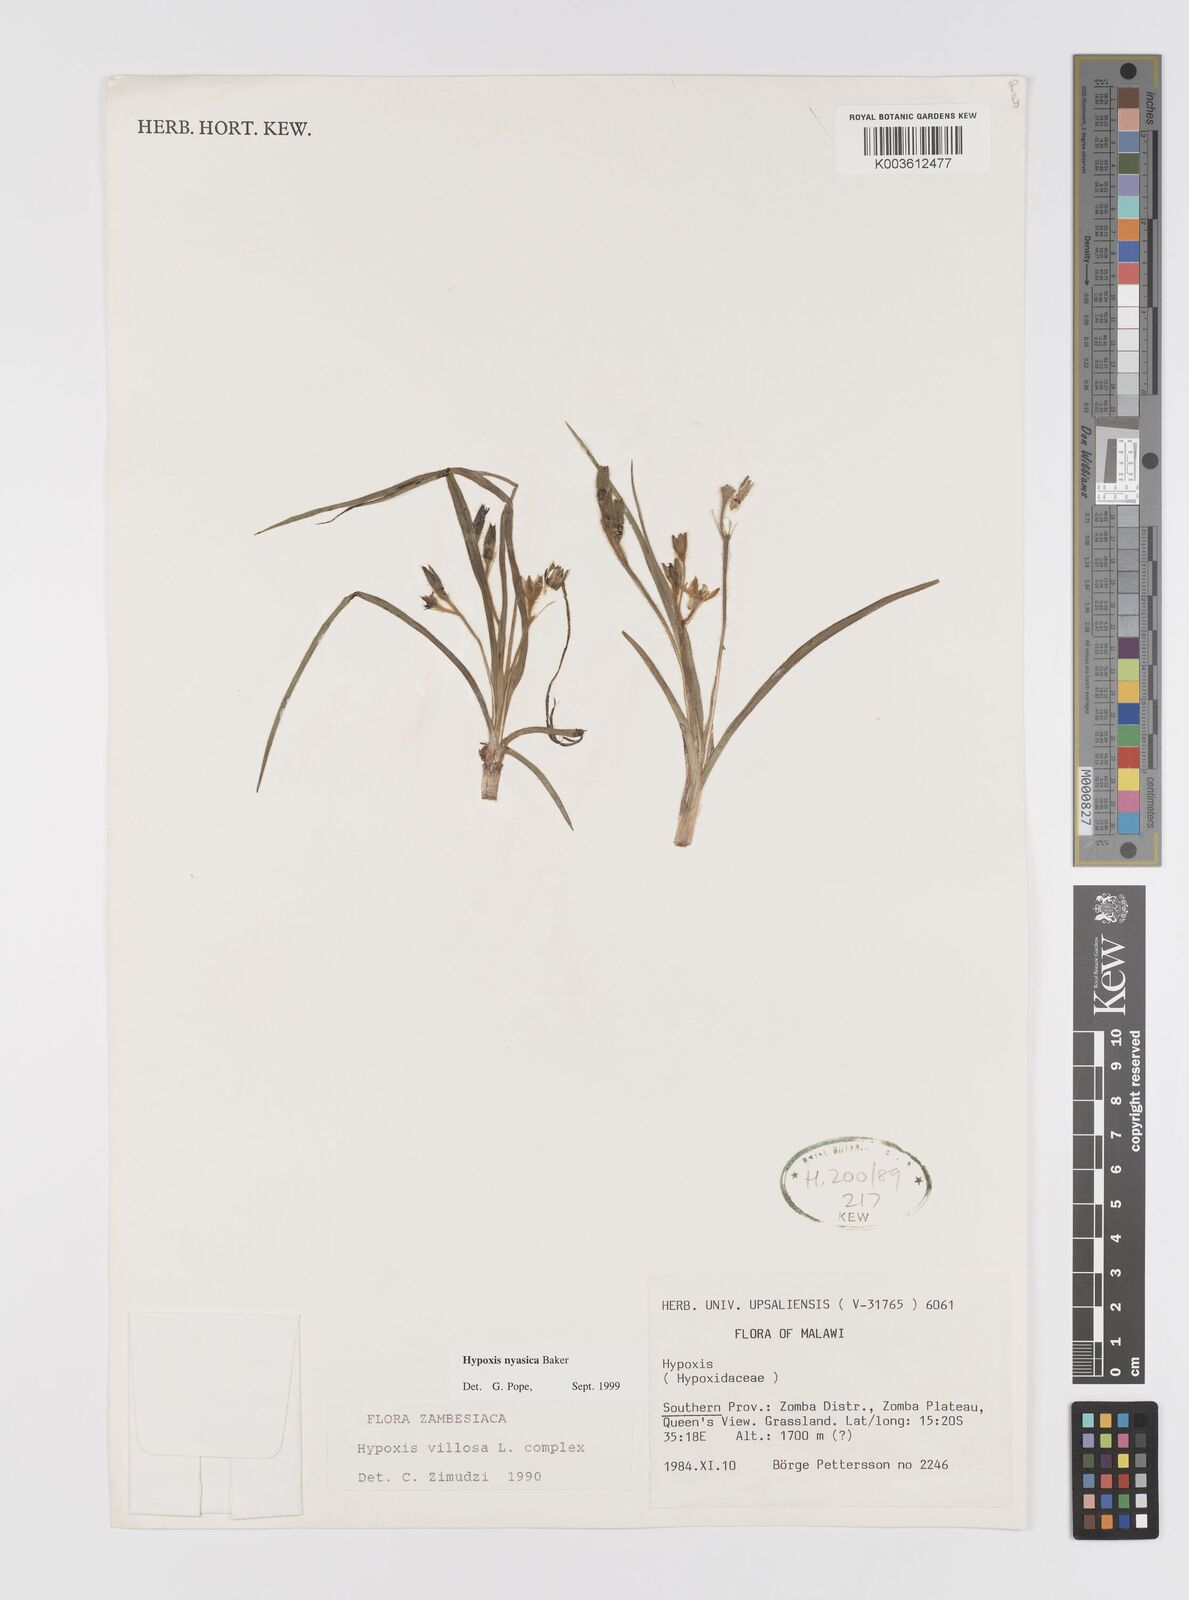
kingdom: Plantae
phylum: Tracheophyta
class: Liliopsida
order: Asparagales
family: Hypoxidaceae
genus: Hypoxis
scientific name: Hypoxis nyasica
